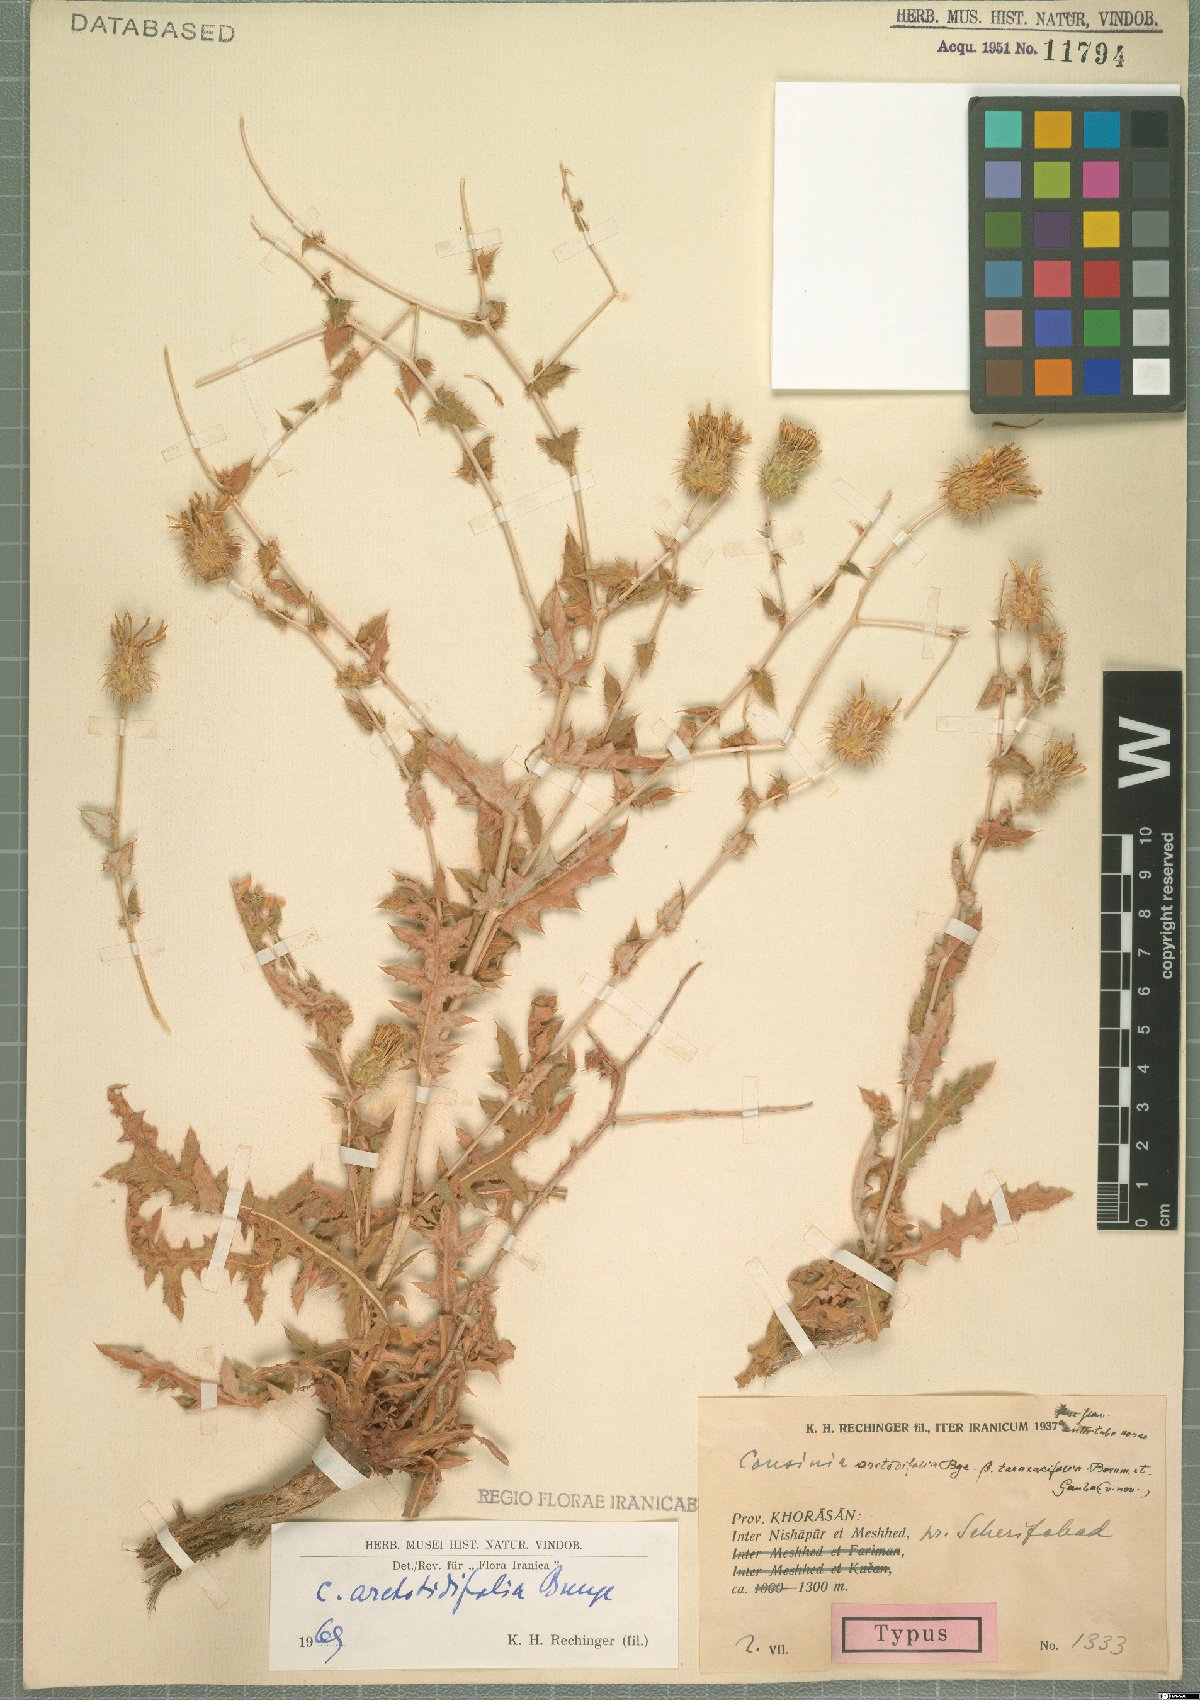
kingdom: Plantae
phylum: Tracheophyta
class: Magnoliopsida
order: Asterales
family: Asteraceae
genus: Cousinia
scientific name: Cousinia arctotidifolia
